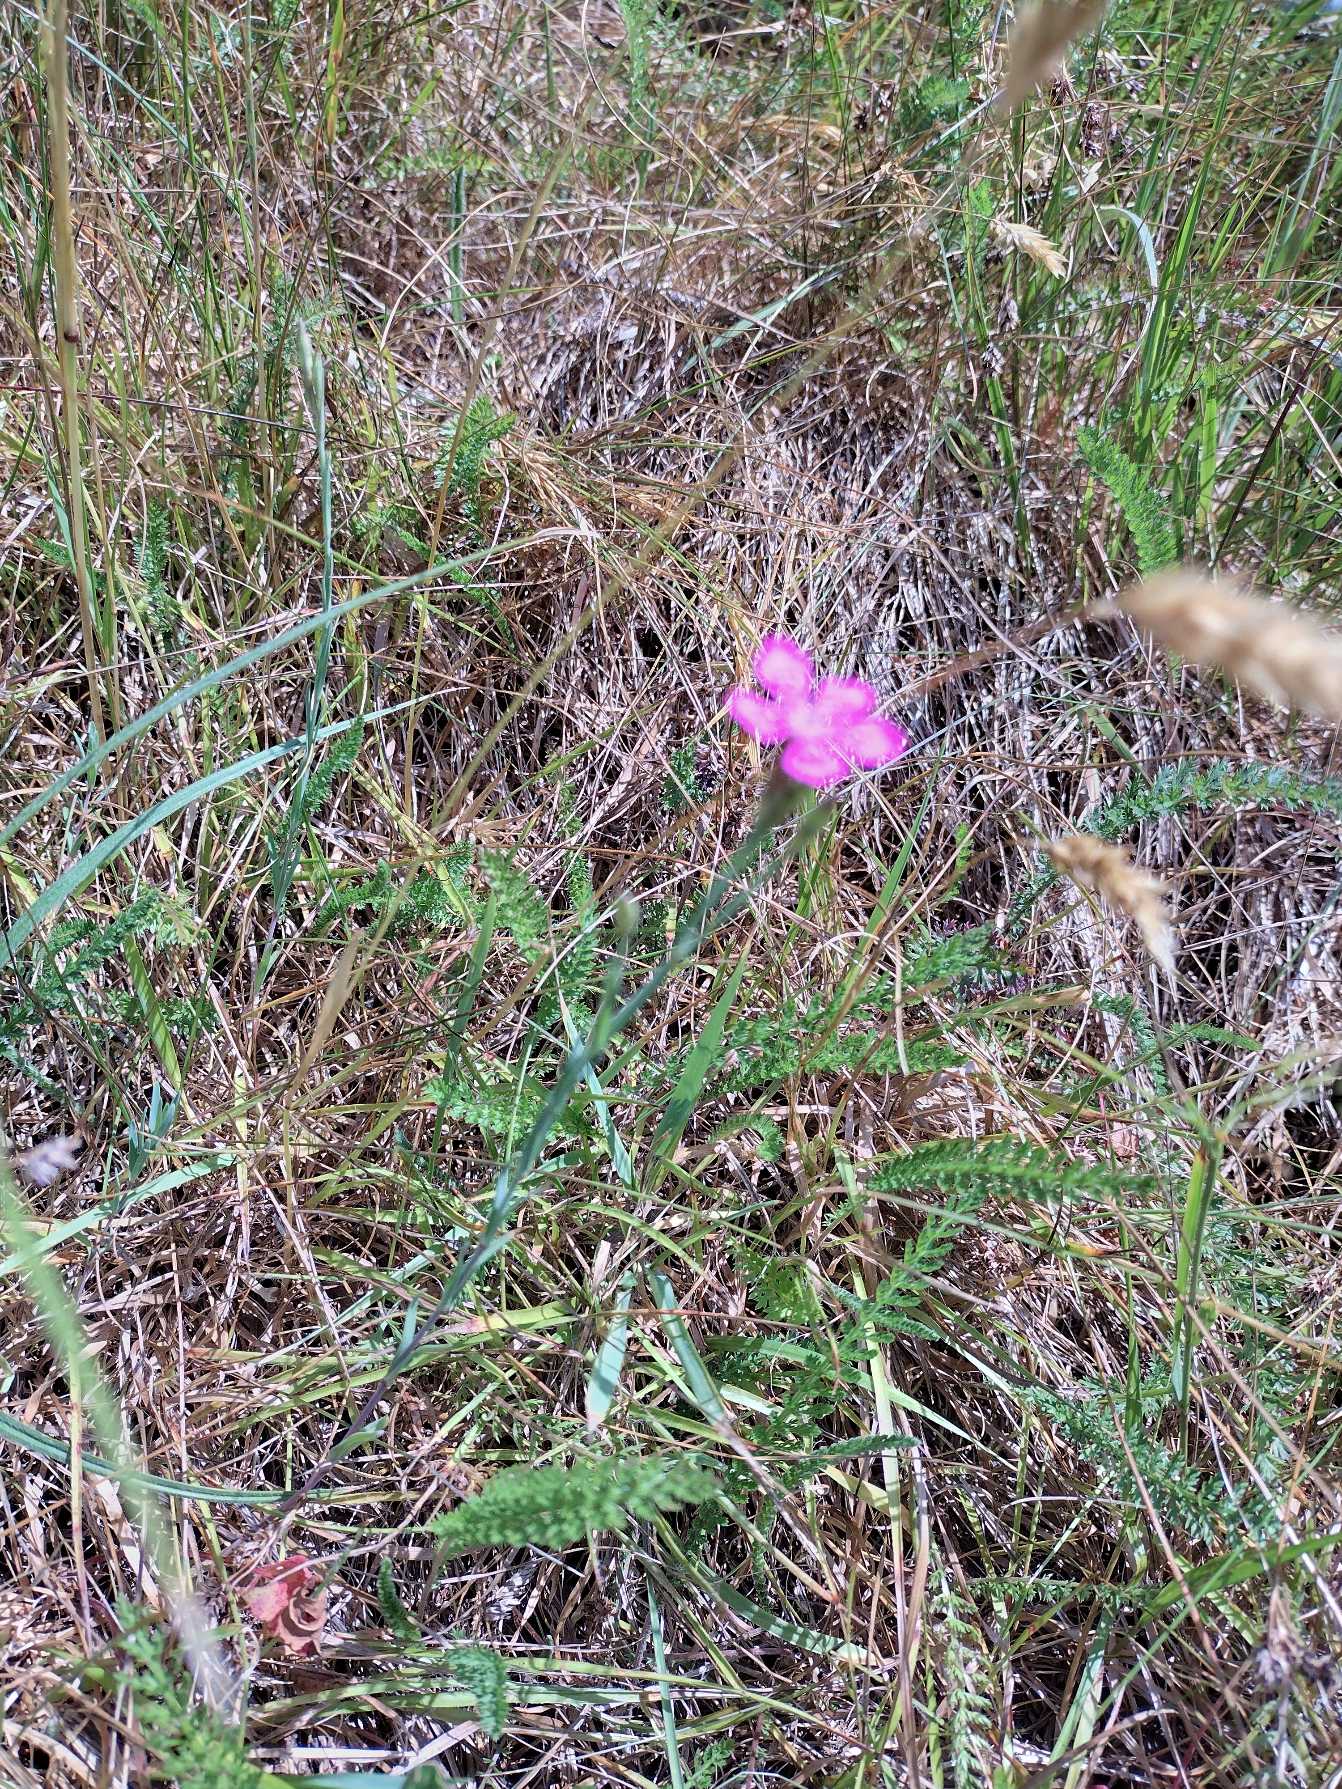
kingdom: Plantae
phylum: Tracheophyta
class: Magnoliopsida
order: Caryophyllales
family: Caryophyllaceae
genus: Dianthus
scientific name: Dianthus deltoides
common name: Bakke-nellike
